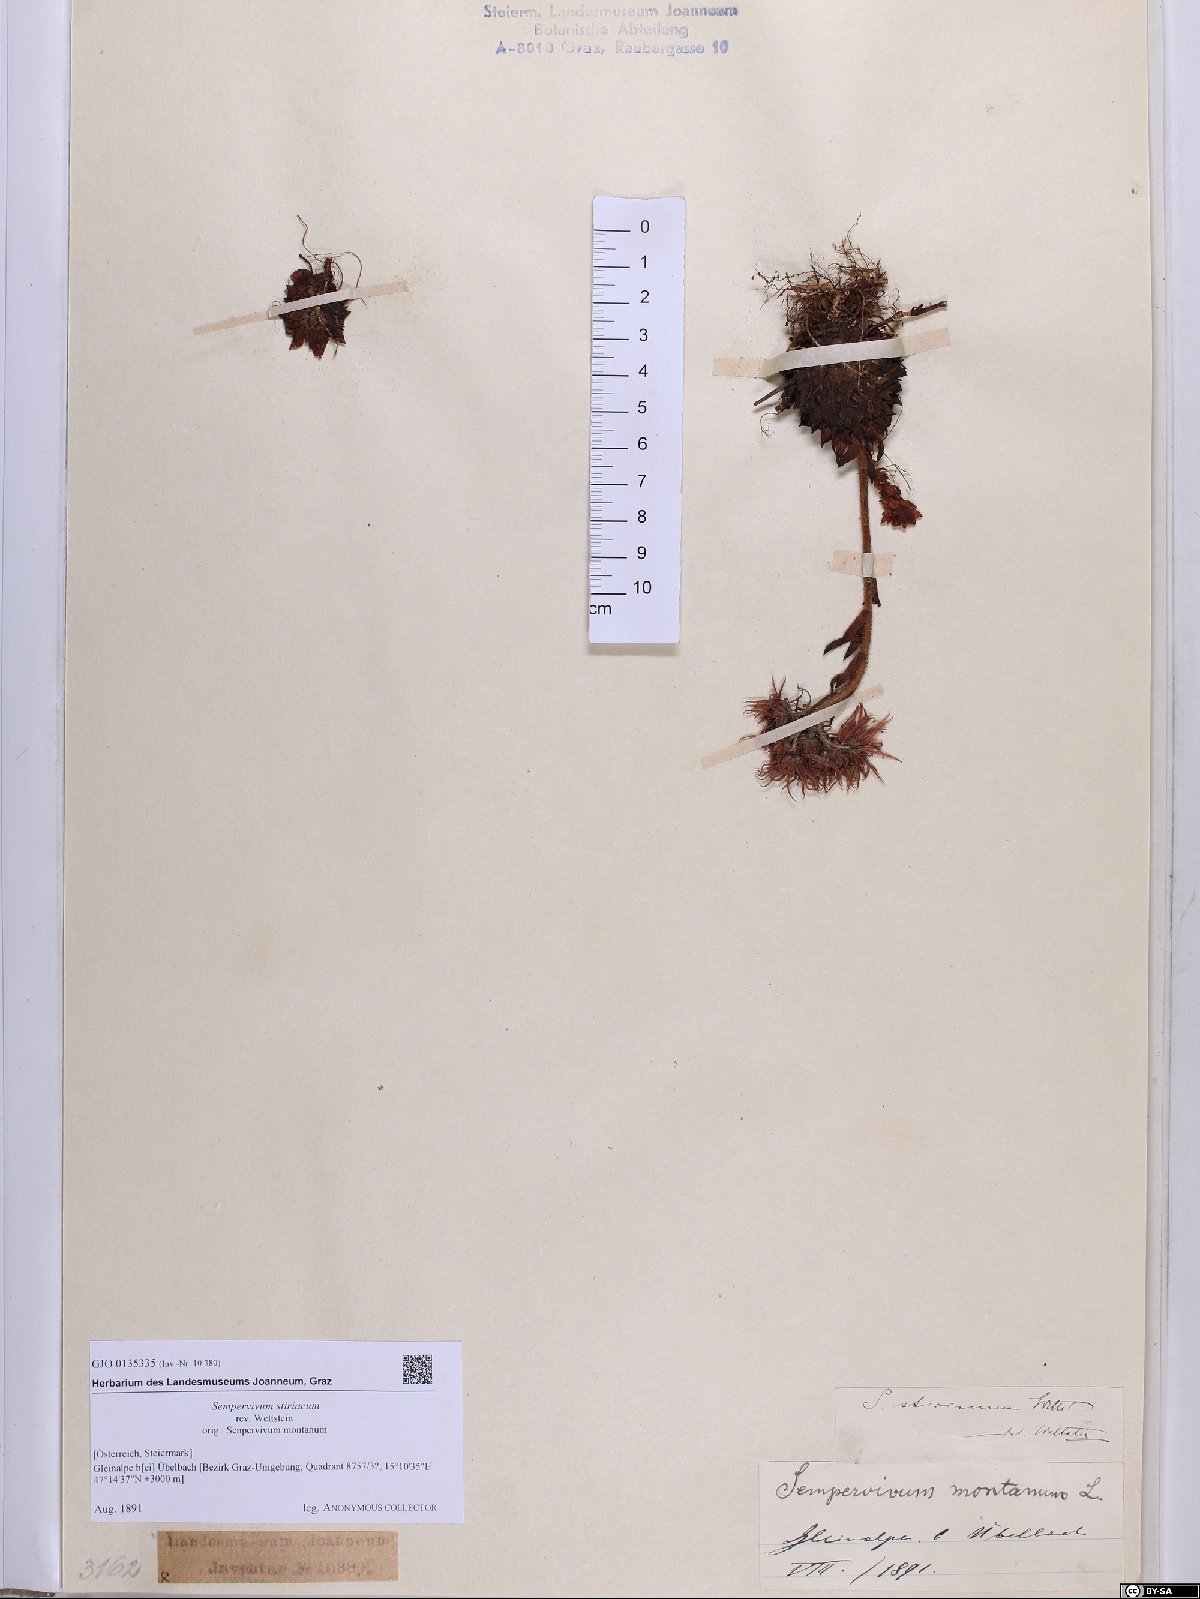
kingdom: Plantae
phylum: Tracheophyta
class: Magnoliopsida
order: Saxifragales
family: Crassulaceae
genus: Sempervivum
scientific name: Sempervivum montanum
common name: Mountain house-leek
